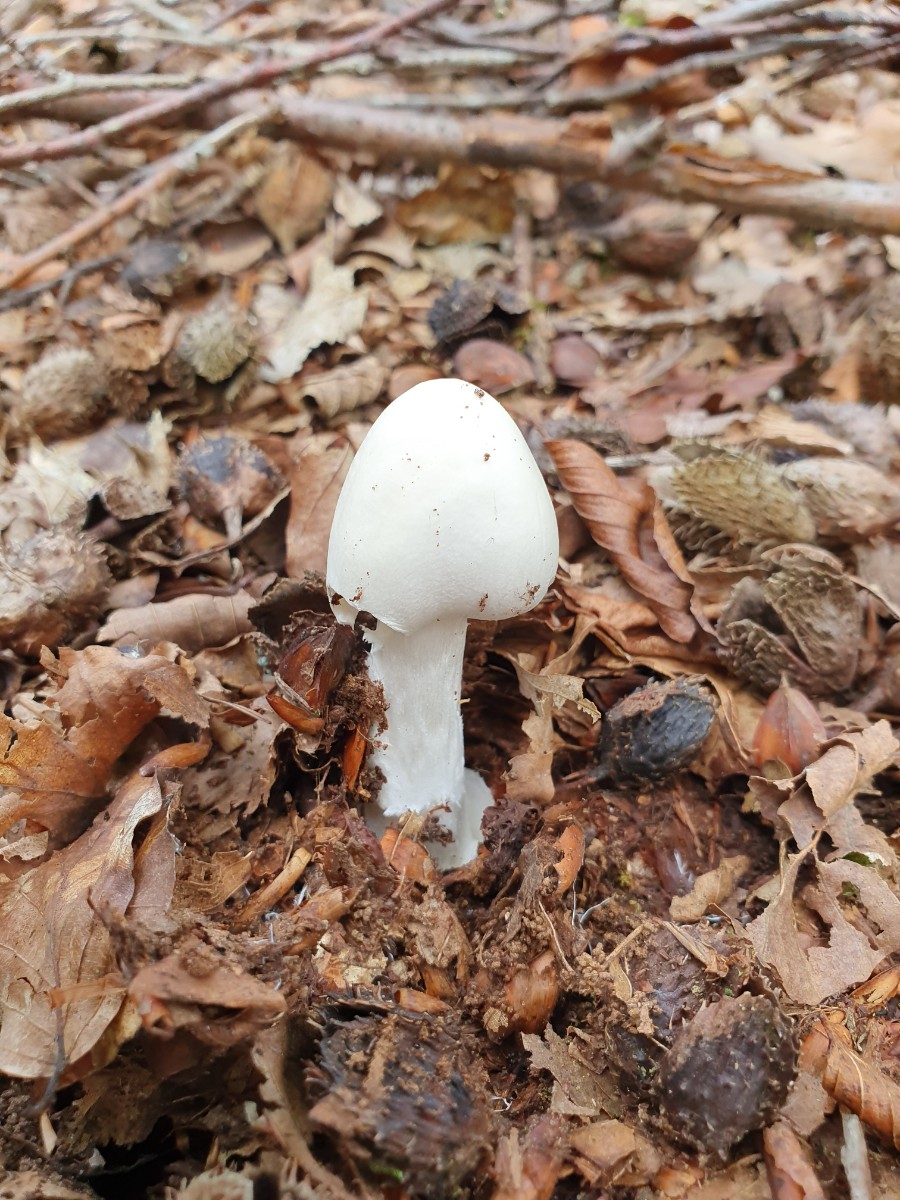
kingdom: Fungi
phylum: Basidiomycota
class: Agaricomycetes
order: Agaricales
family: Amanitaceae
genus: Amanita
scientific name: Amanita virosa
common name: snehvid fluesvamp
